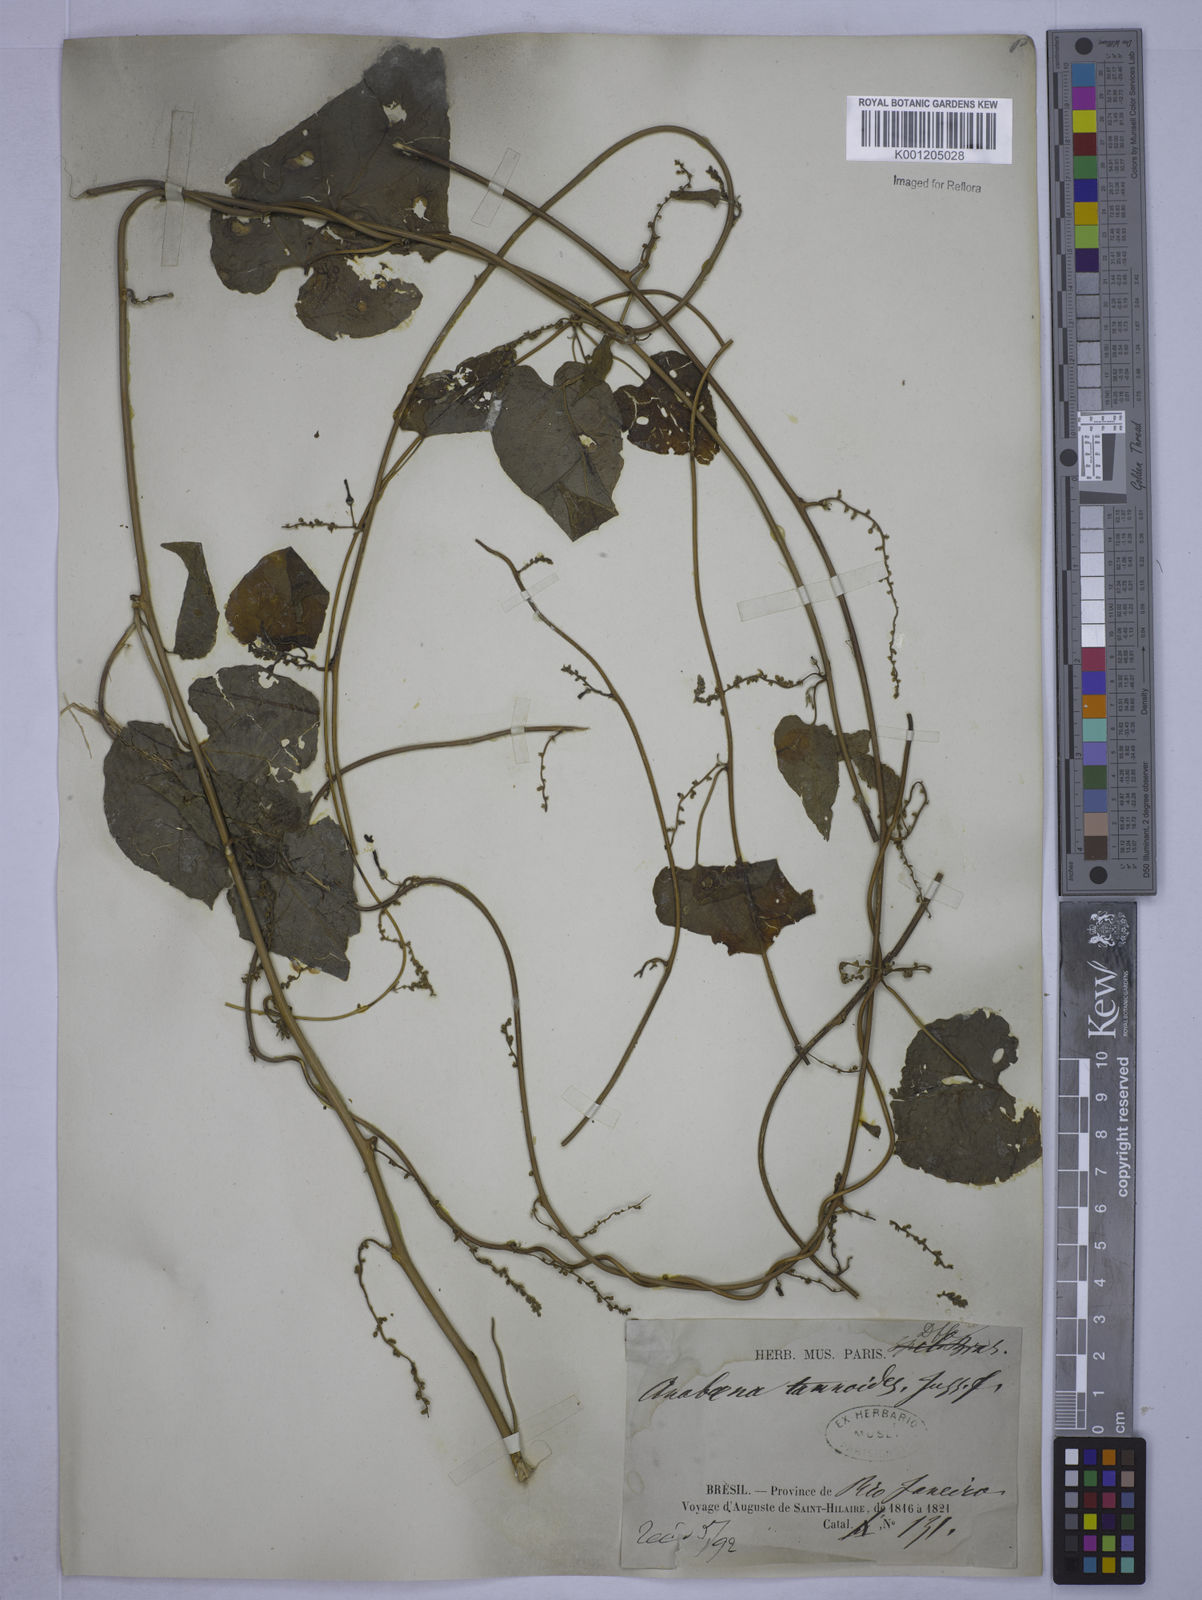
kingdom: Plantae
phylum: Tracheophyta
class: Magnoliopsida
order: Malpighiales
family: Euphorbiaceae
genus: Romanoa
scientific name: Romanoa tamnoides
